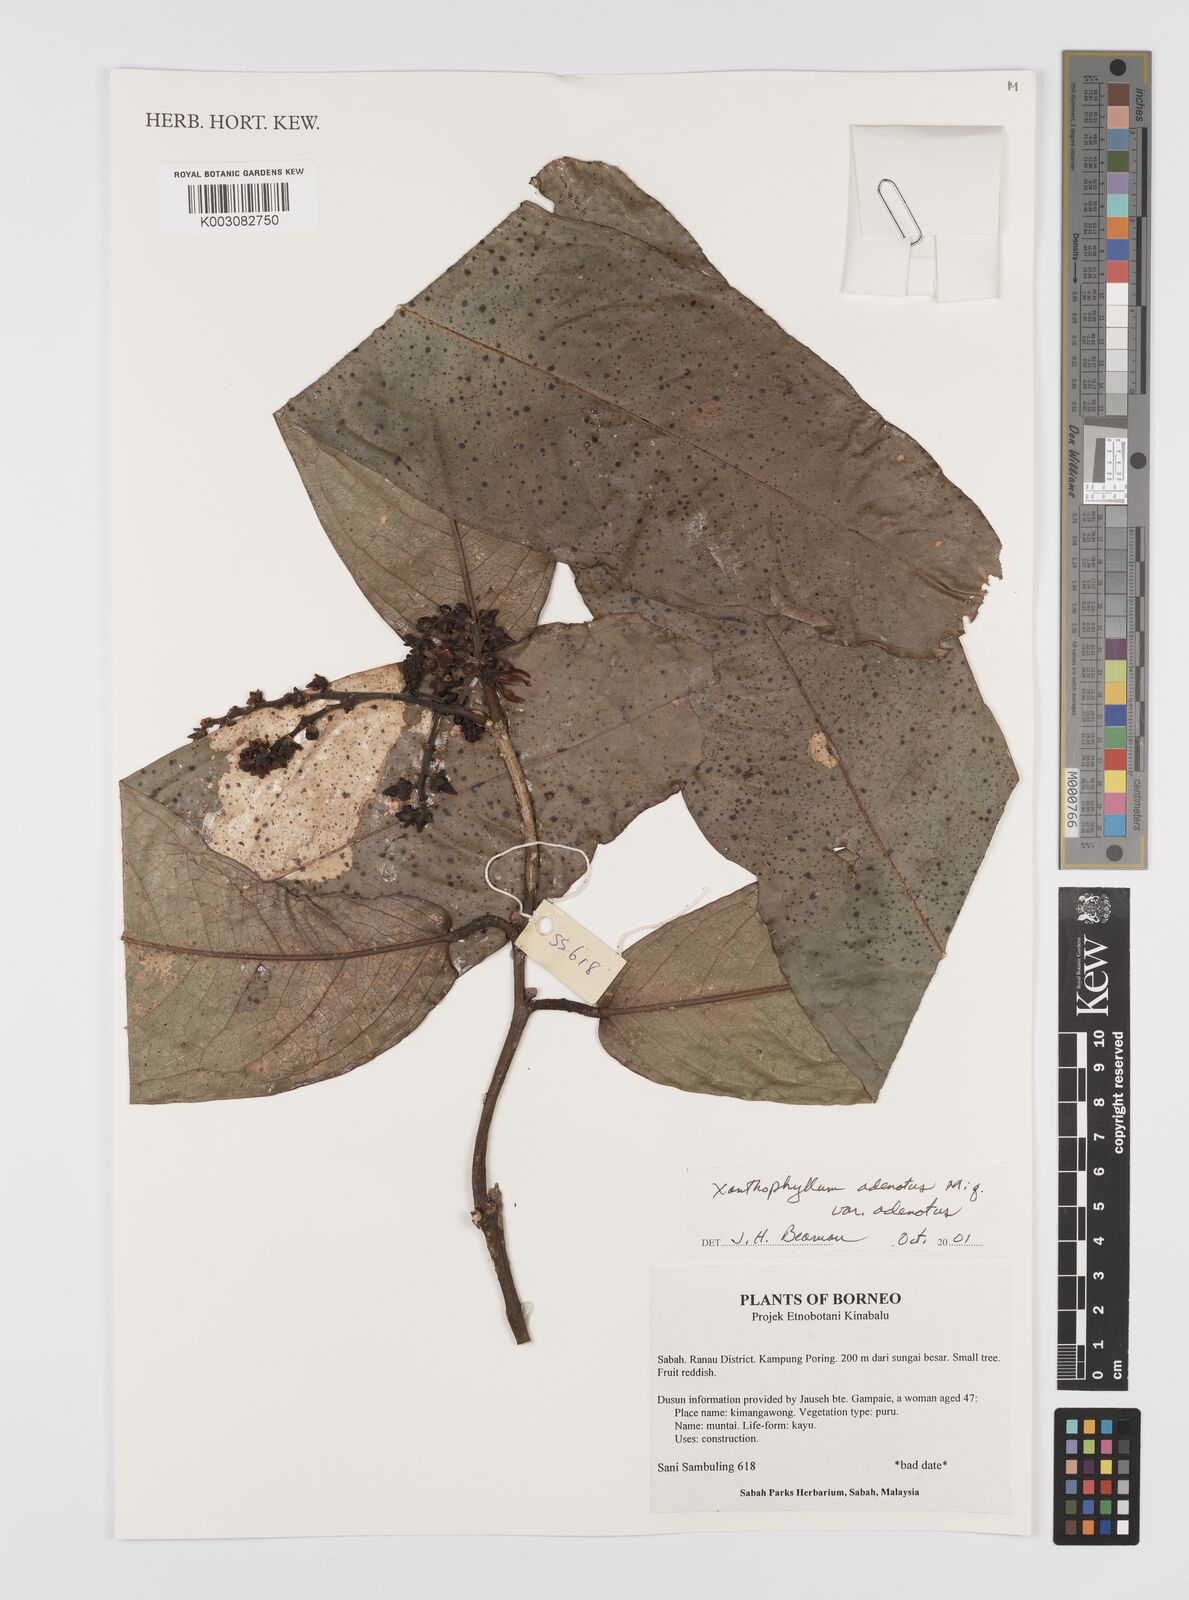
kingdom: Plantae
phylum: Tracheophyta
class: Magnoliopsida
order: Fabales
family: Polygalaceae
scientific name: Polygalaceae
